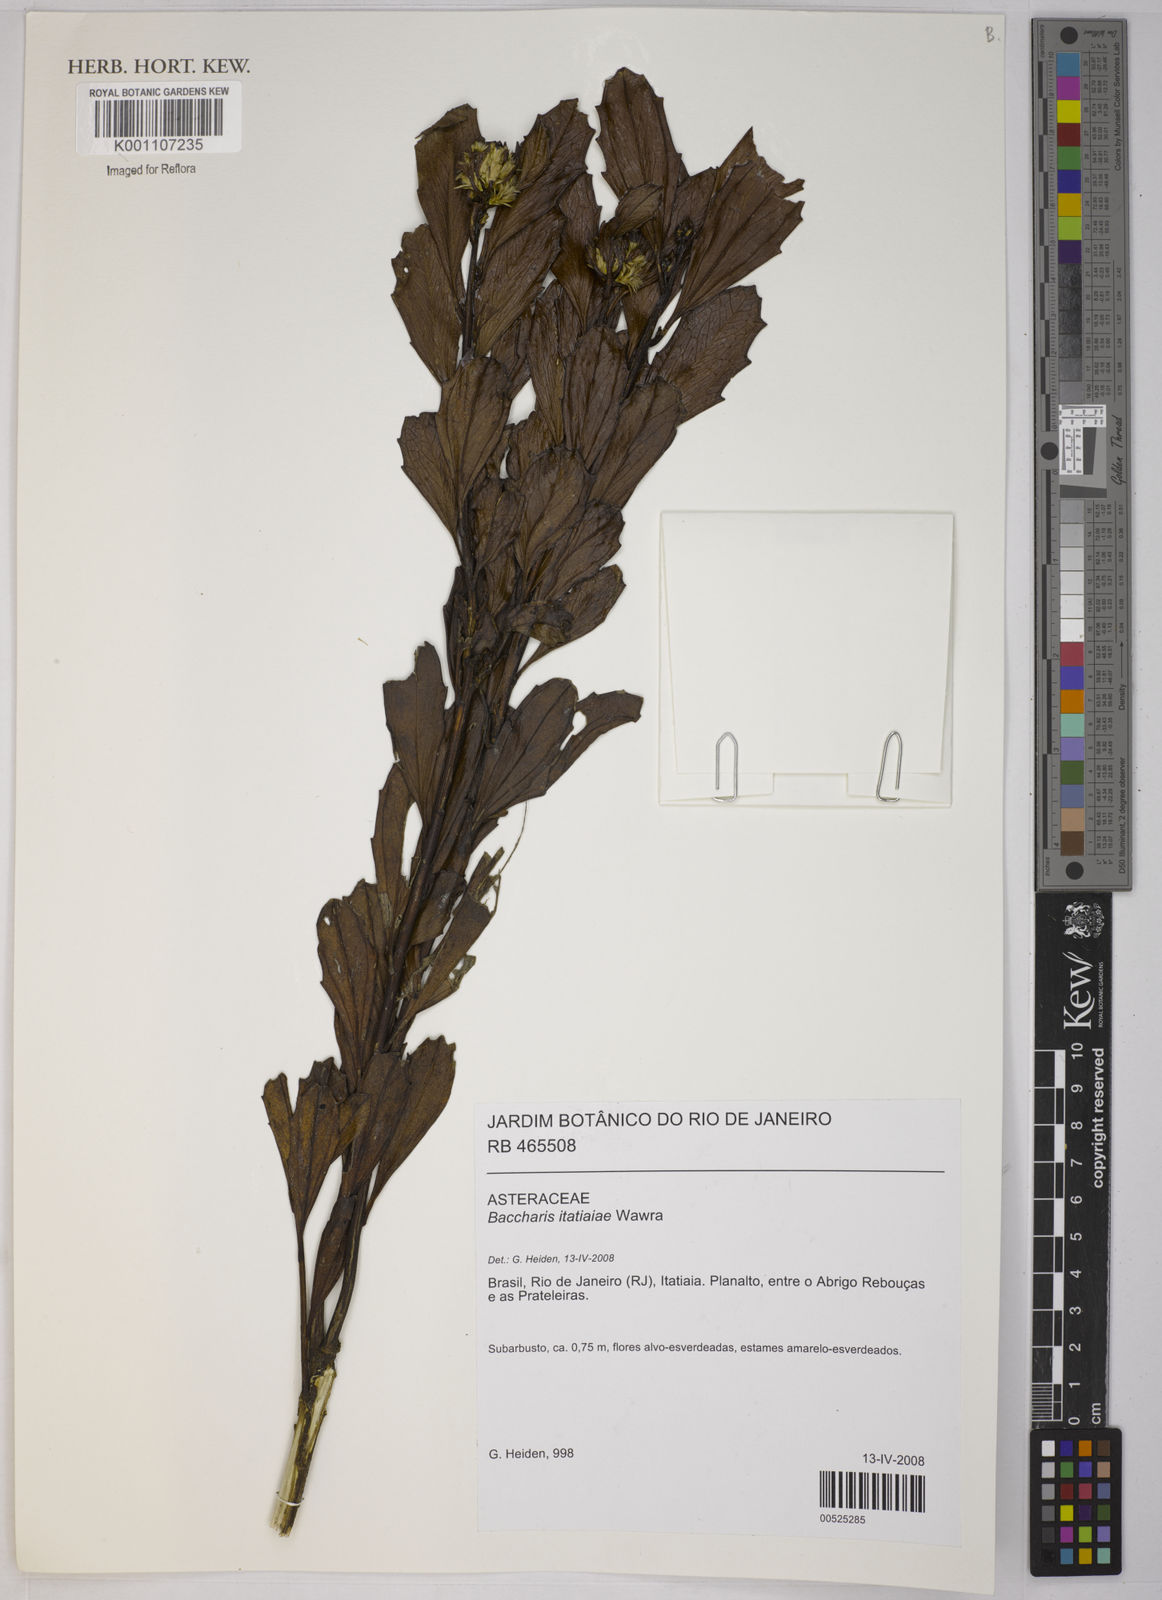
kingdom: Plantae
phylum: Tracheophyta
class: Magnoliopsida
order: Asterales
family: Asteraceae
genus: Baccharis
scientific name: Baccharis itatiaiae
